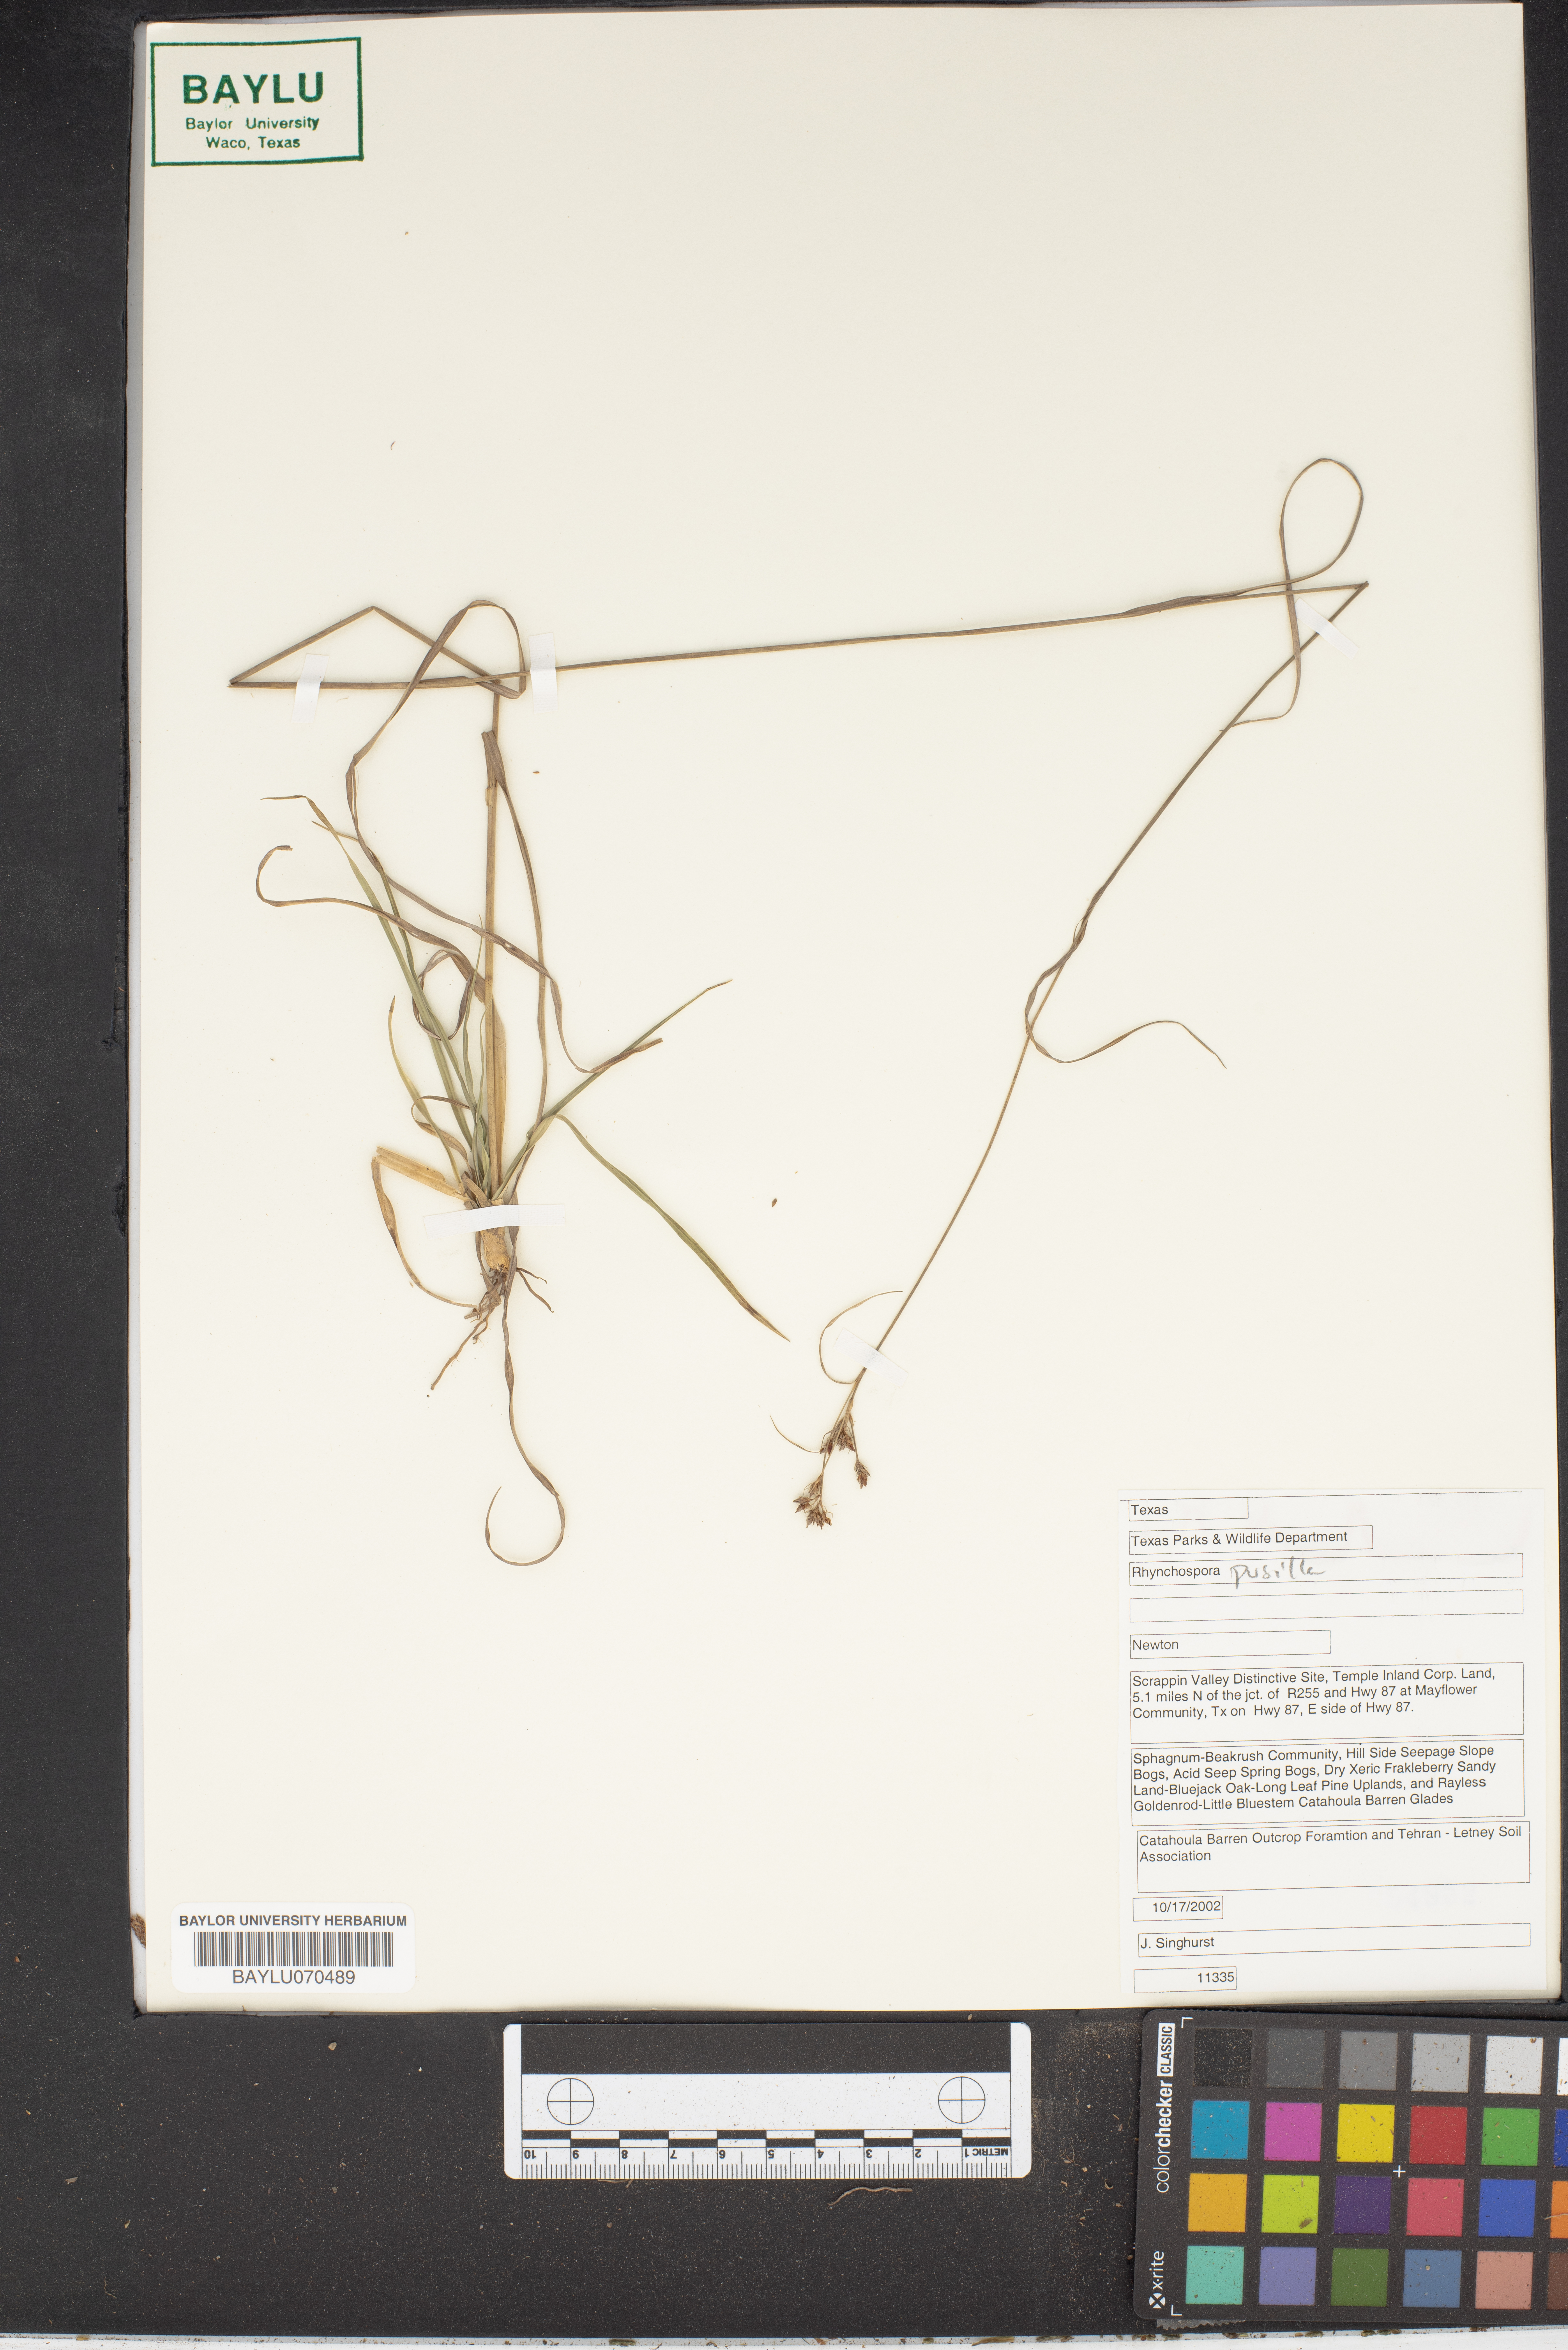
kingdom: Plantae
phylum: Tracheophyta
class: Liliopsida
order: Poales
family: Cyperaceae
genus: Rhynchospora
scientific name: Rhynchospora pusilla
